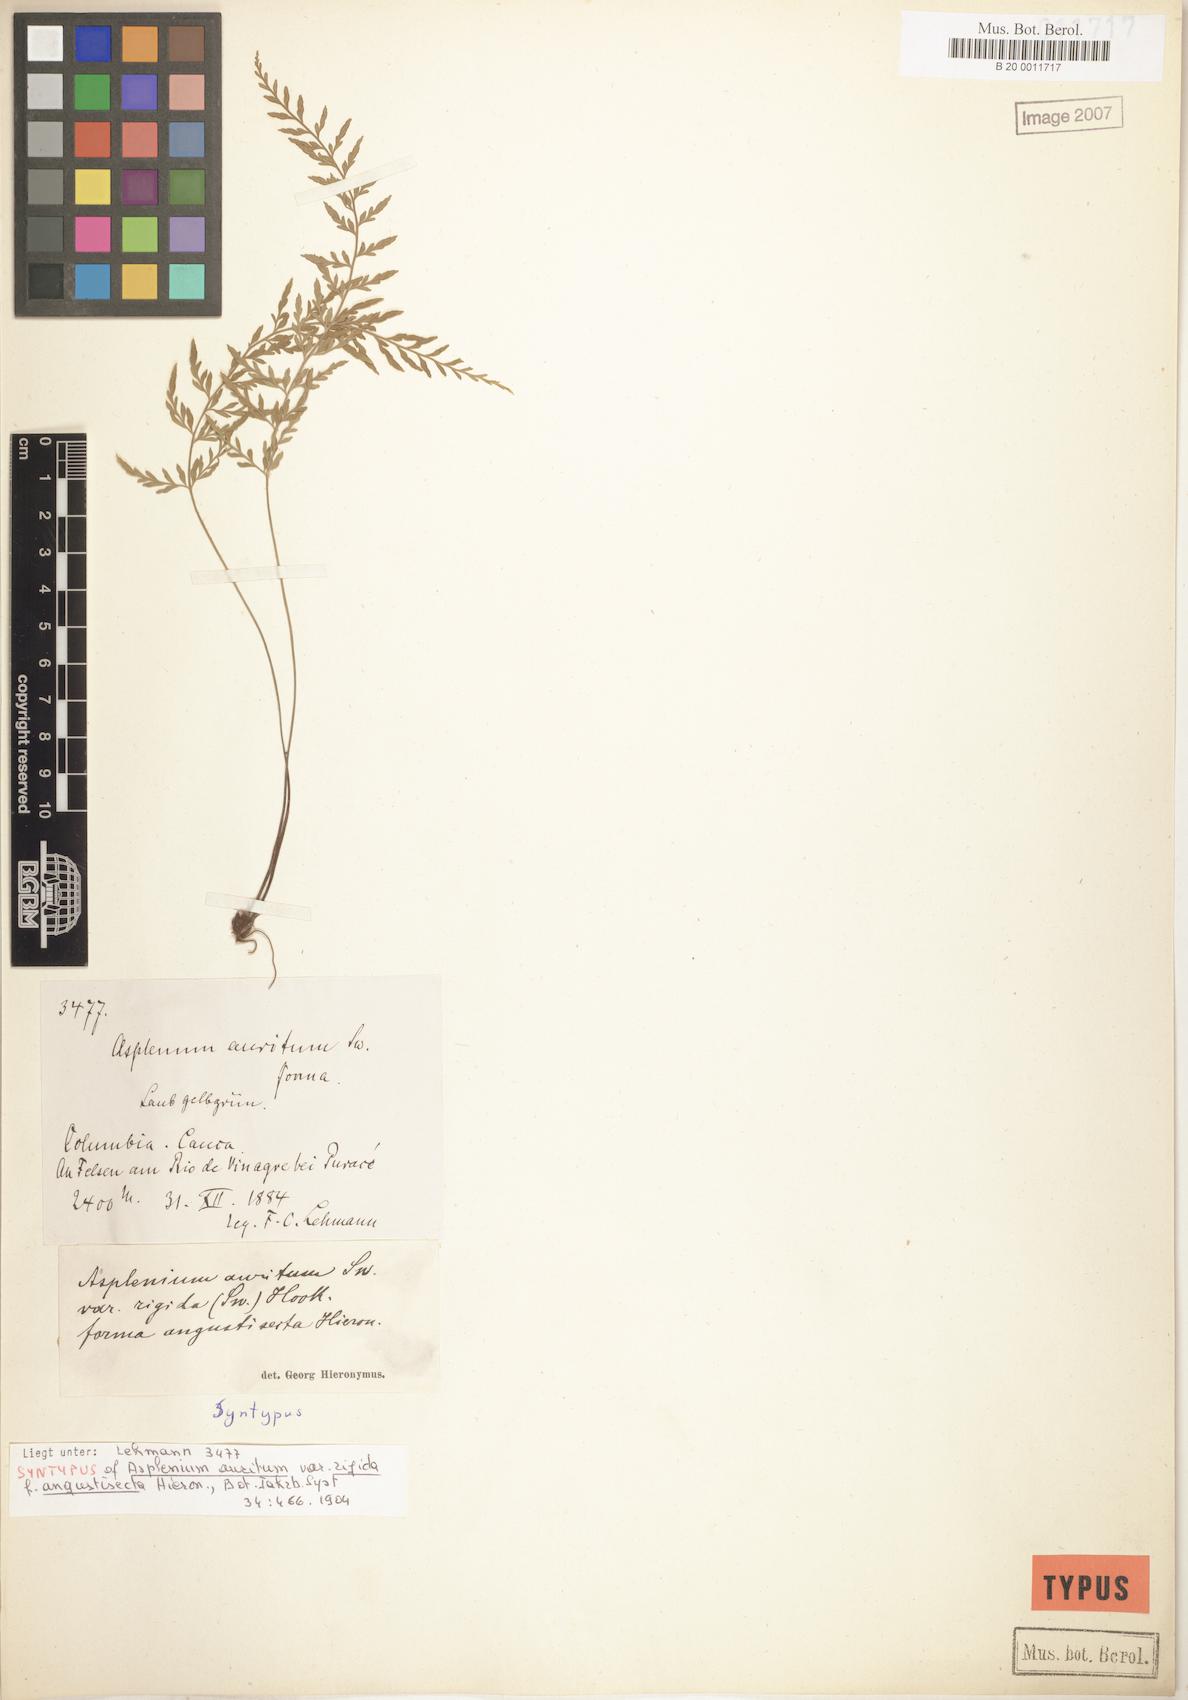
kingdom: Plantae
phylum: Tracheophyta
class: Polypodiopsida
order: Polypodiales
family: Aspleniaceae
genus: Asplenium
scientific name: Asplenium auritum
